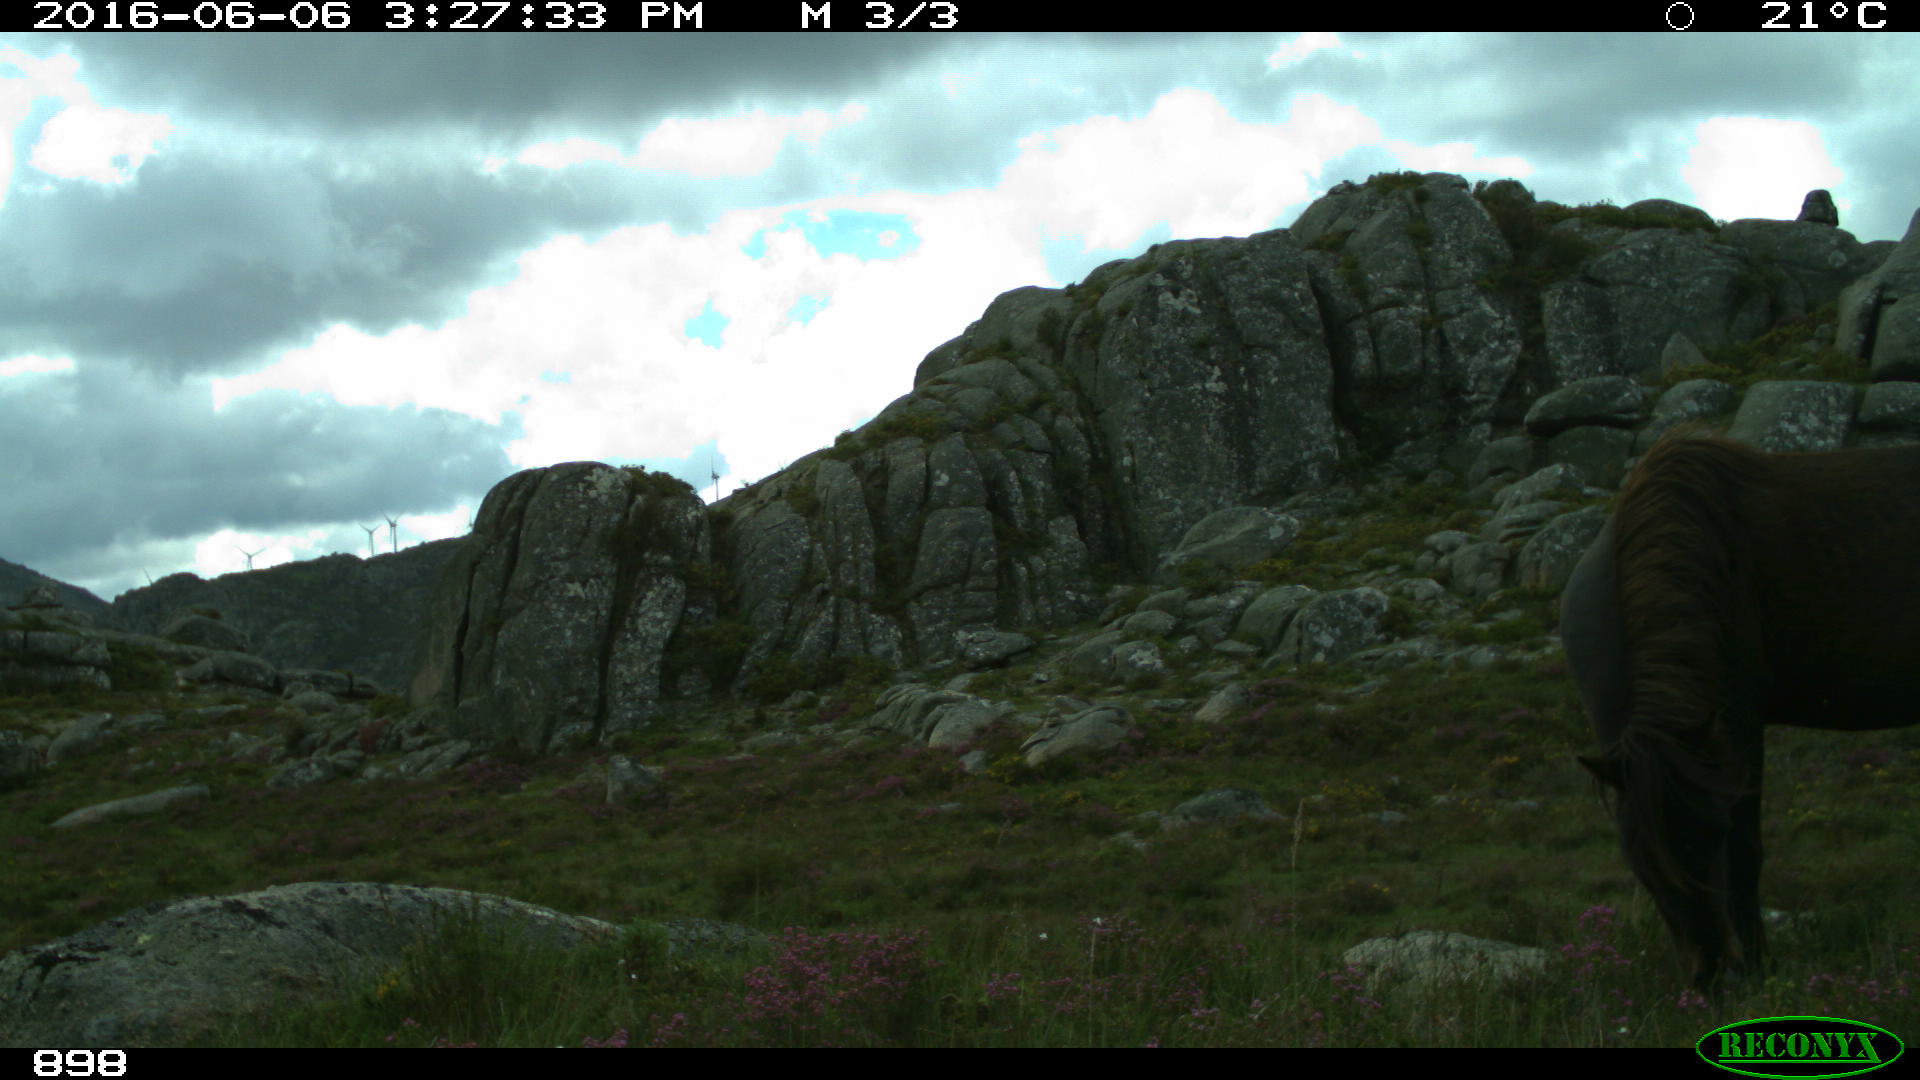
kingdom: Animalia
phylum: Chordata
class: Mammalia
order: Perissodactyla
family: Equidae
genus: Equus
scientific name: Equus caballus
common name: Horse
